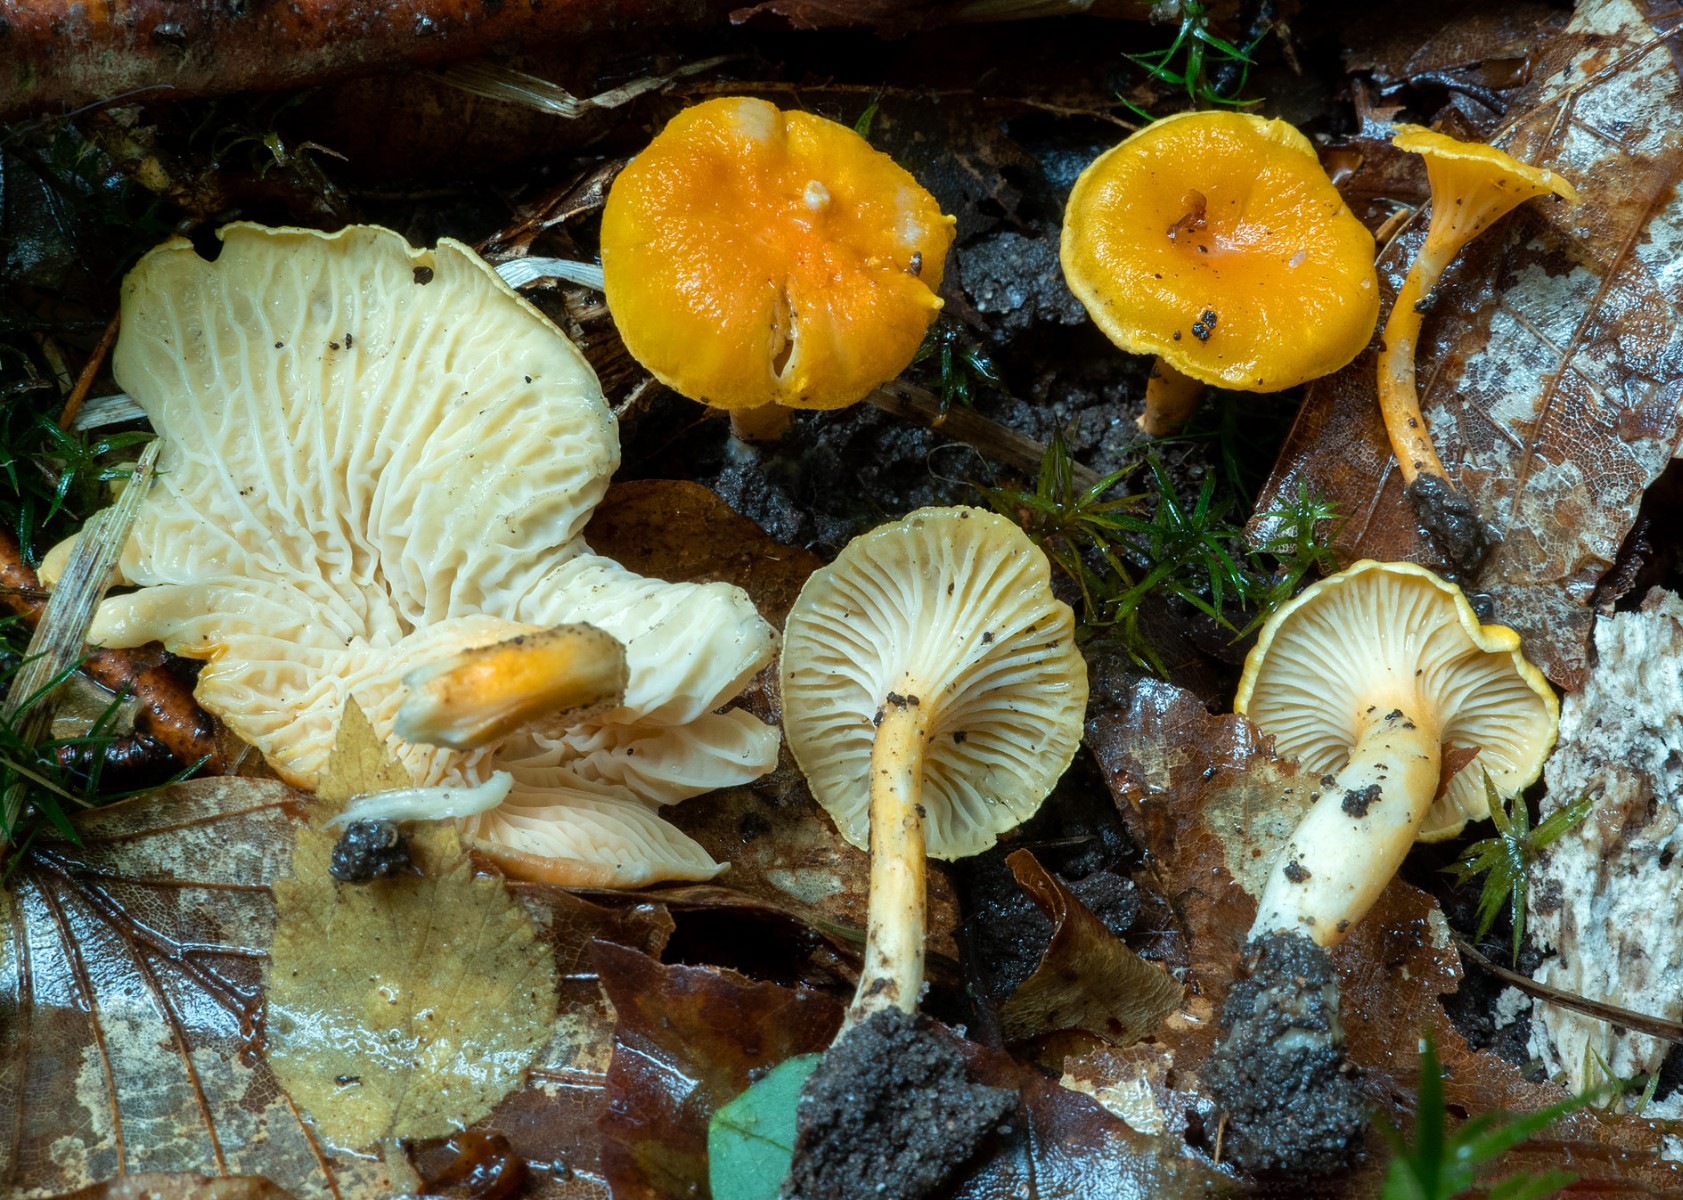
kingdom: Fungi
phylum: Basidiomycota
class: Agaricomycetes
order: Cantharellales
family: Hydnaceae
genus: Cantharellus
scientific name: Cantharellus friesii
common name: abrikos-kantarel
